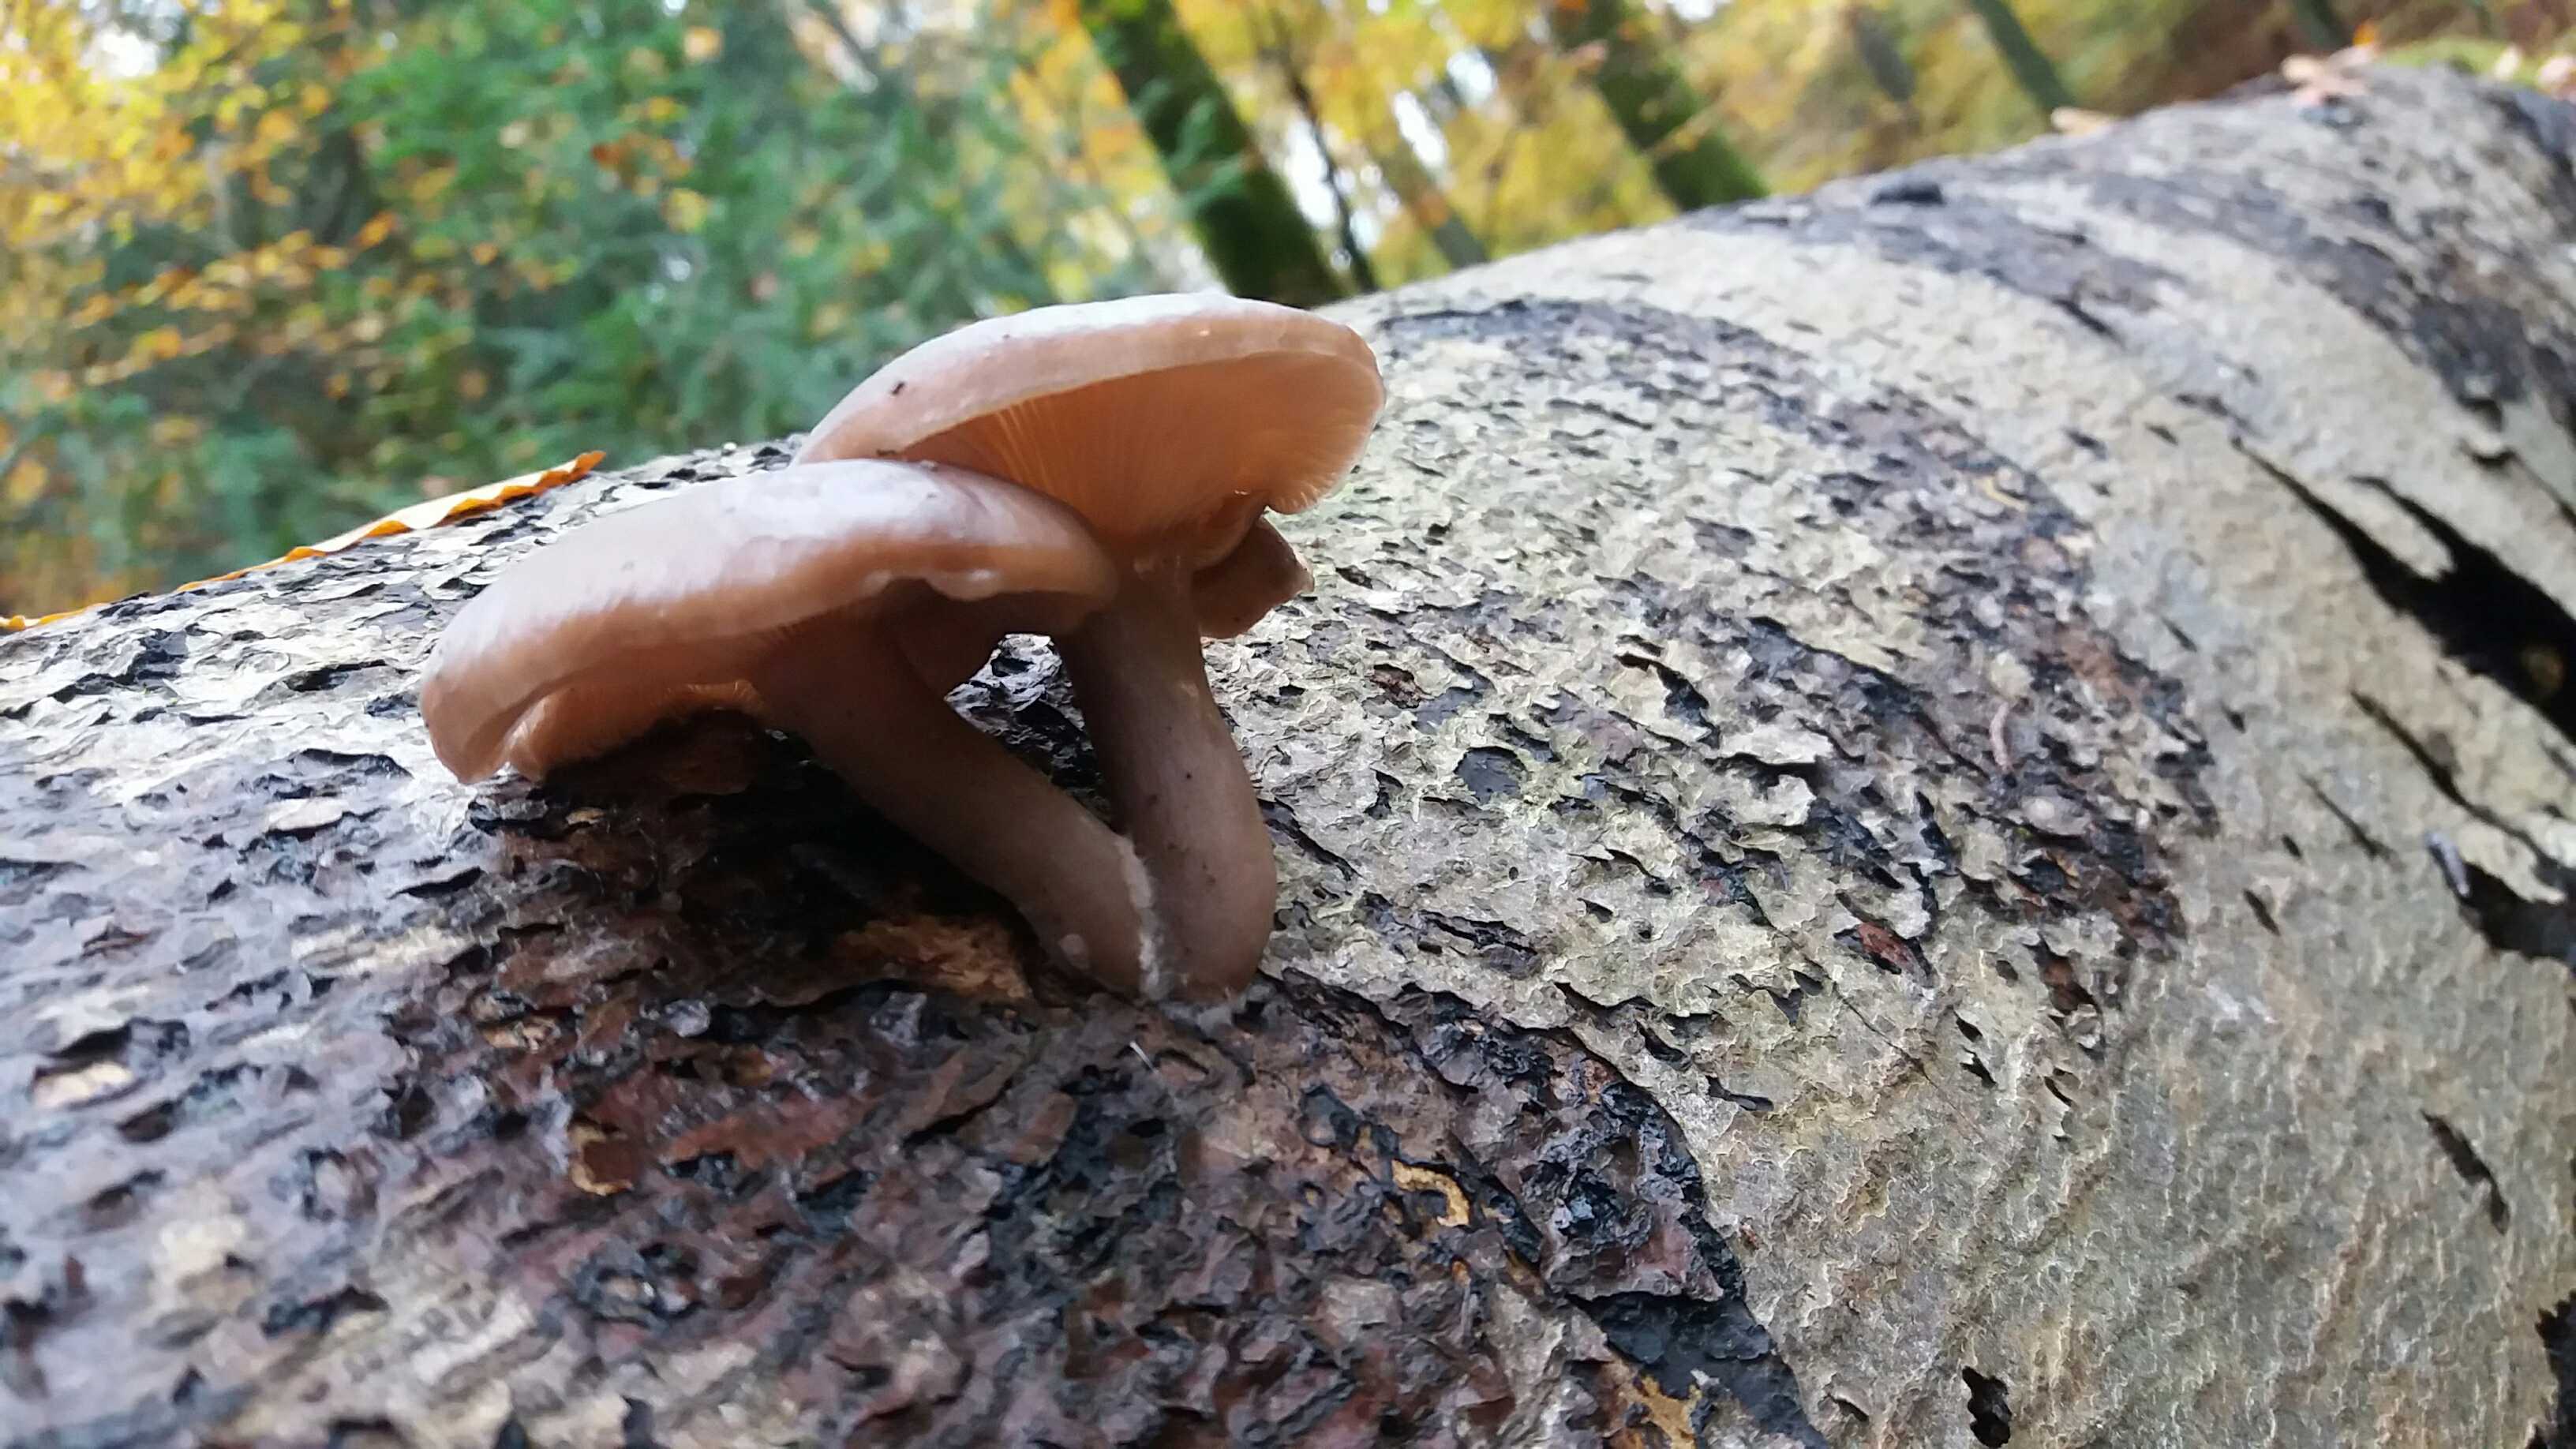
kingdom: Fungi
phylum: Basidiomycota
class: Agaricomycetes
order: Agaricales
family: Pseudoclitocybaceae
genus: Pseudoclitocybe
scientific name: Pseudoclitocybe cyathiformis
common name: almindelig bægertragthat
